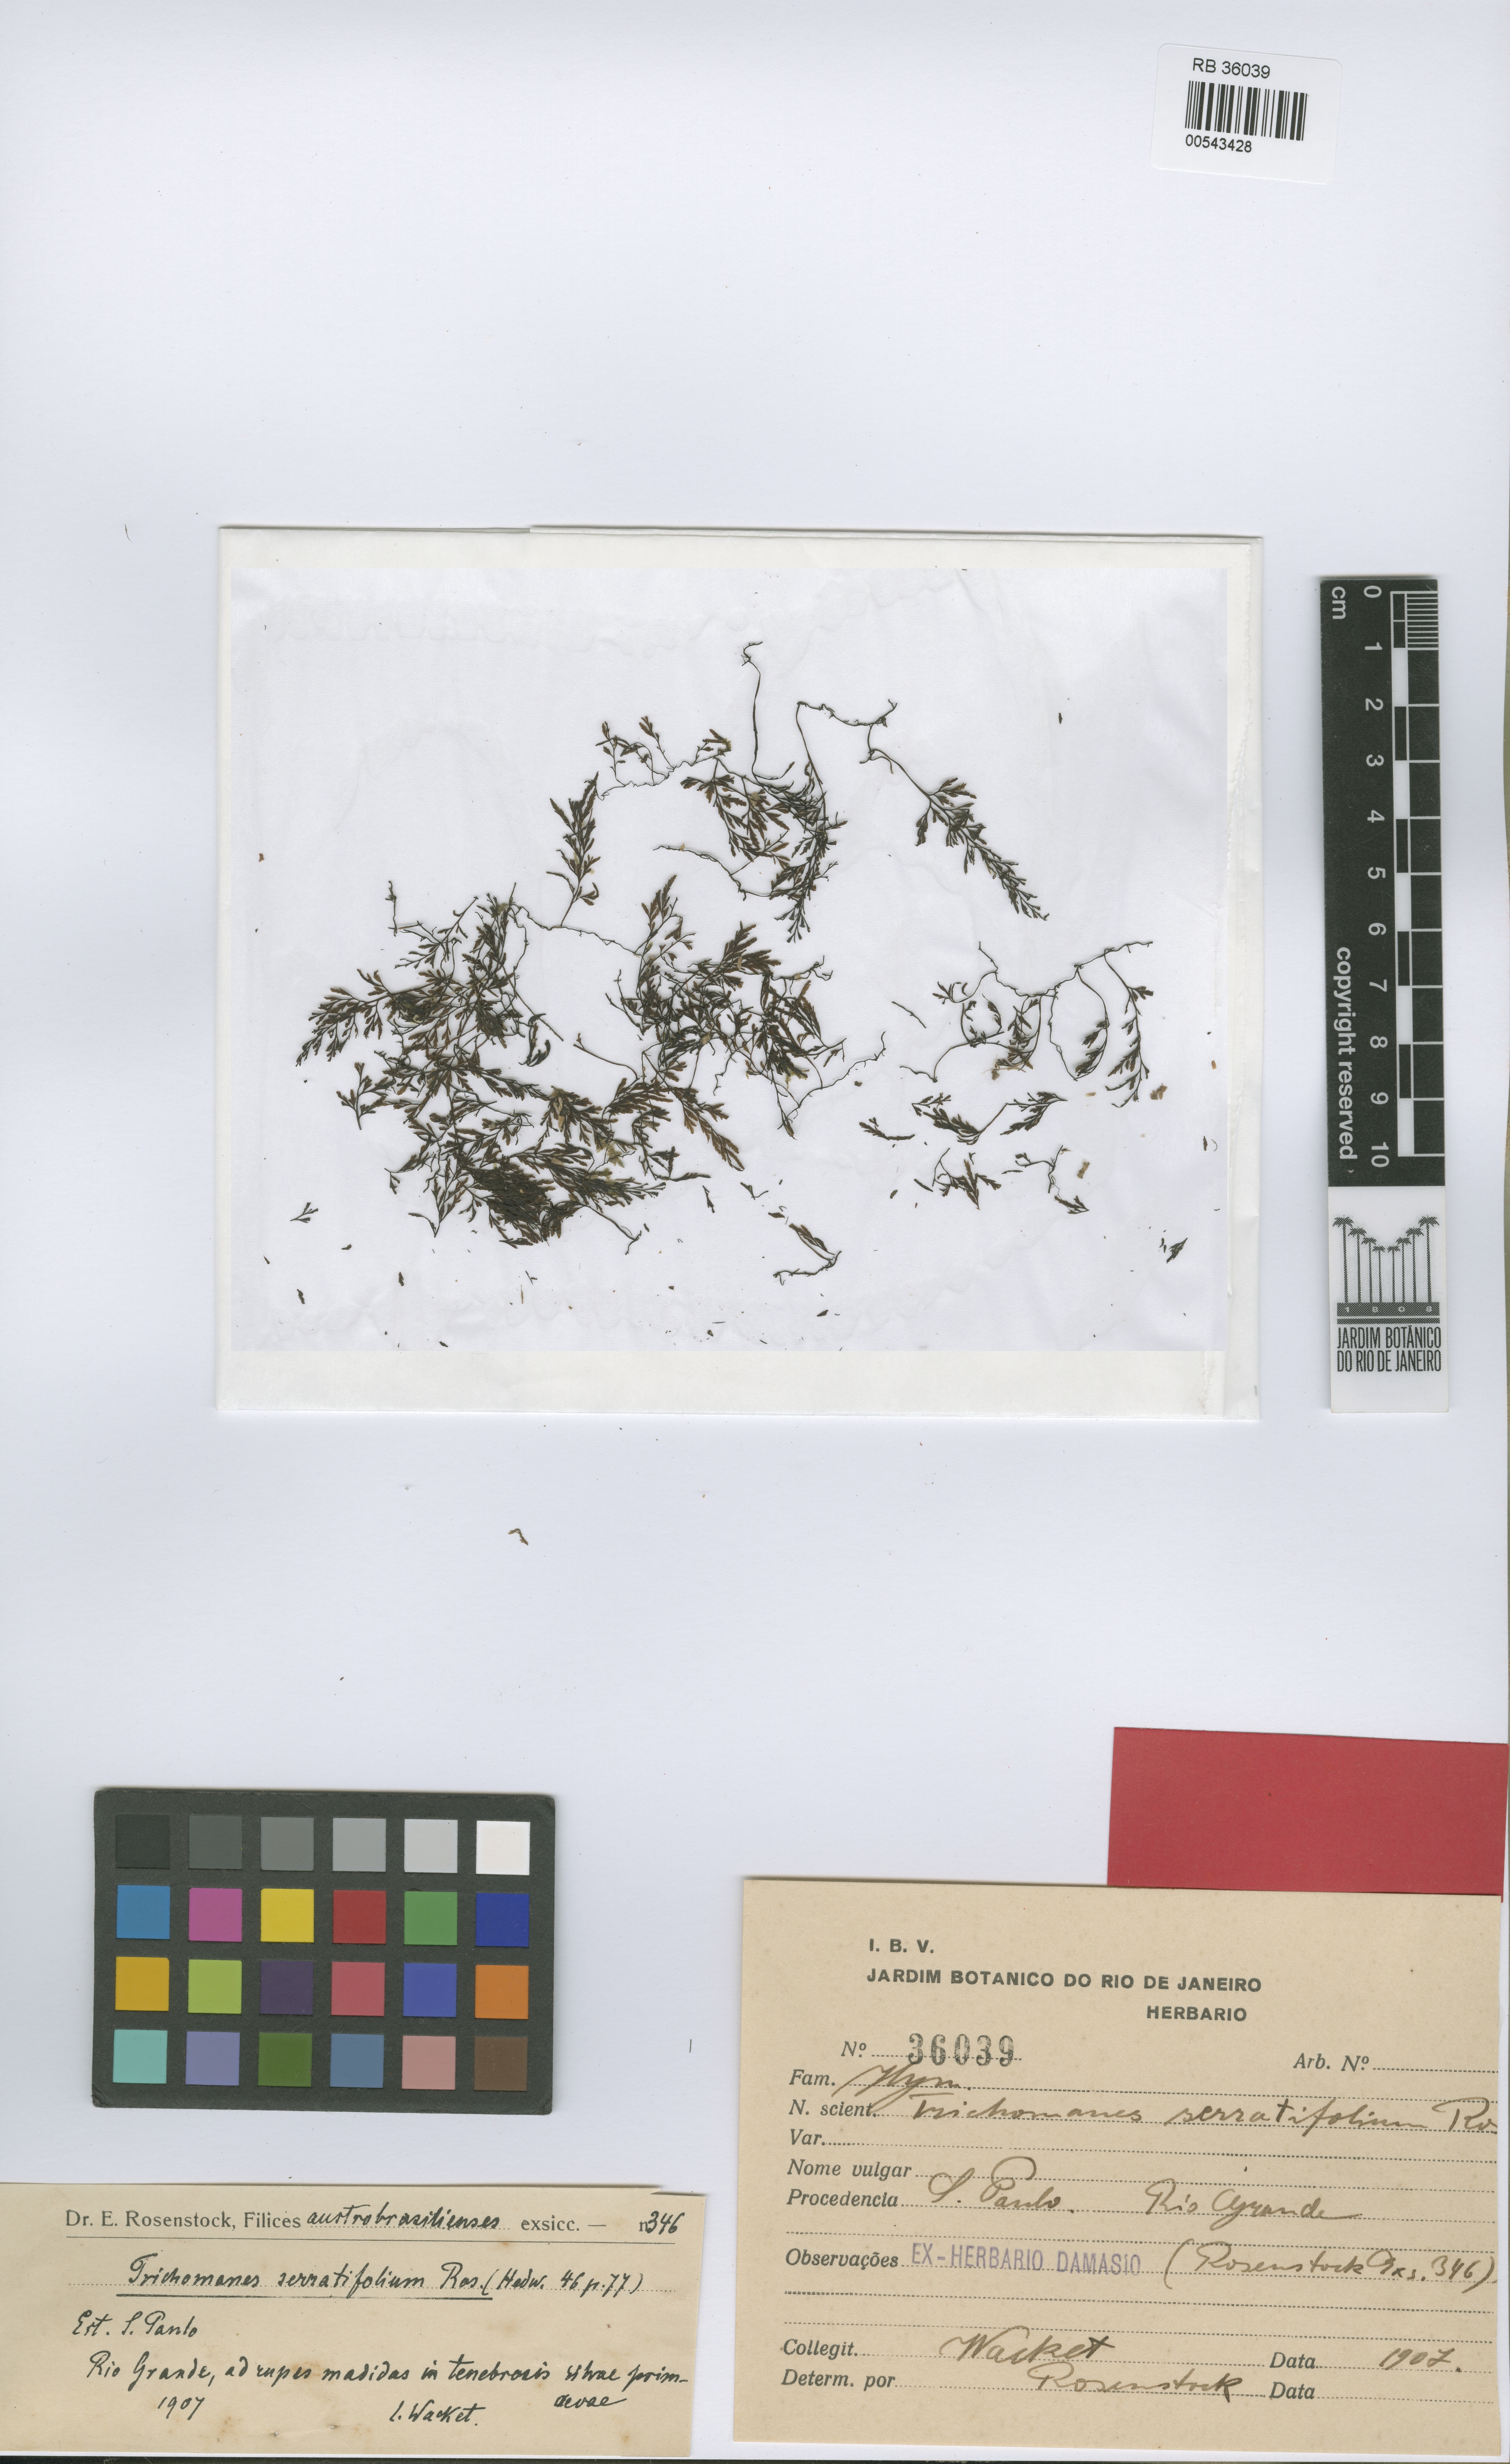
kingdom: Plantae
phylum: Tracheophyta
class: Polypodiopsida
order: Hymenophyllales
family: Hymenophyllaceae
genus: Vandenboschia
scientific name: Vandenboschia serratifolia
